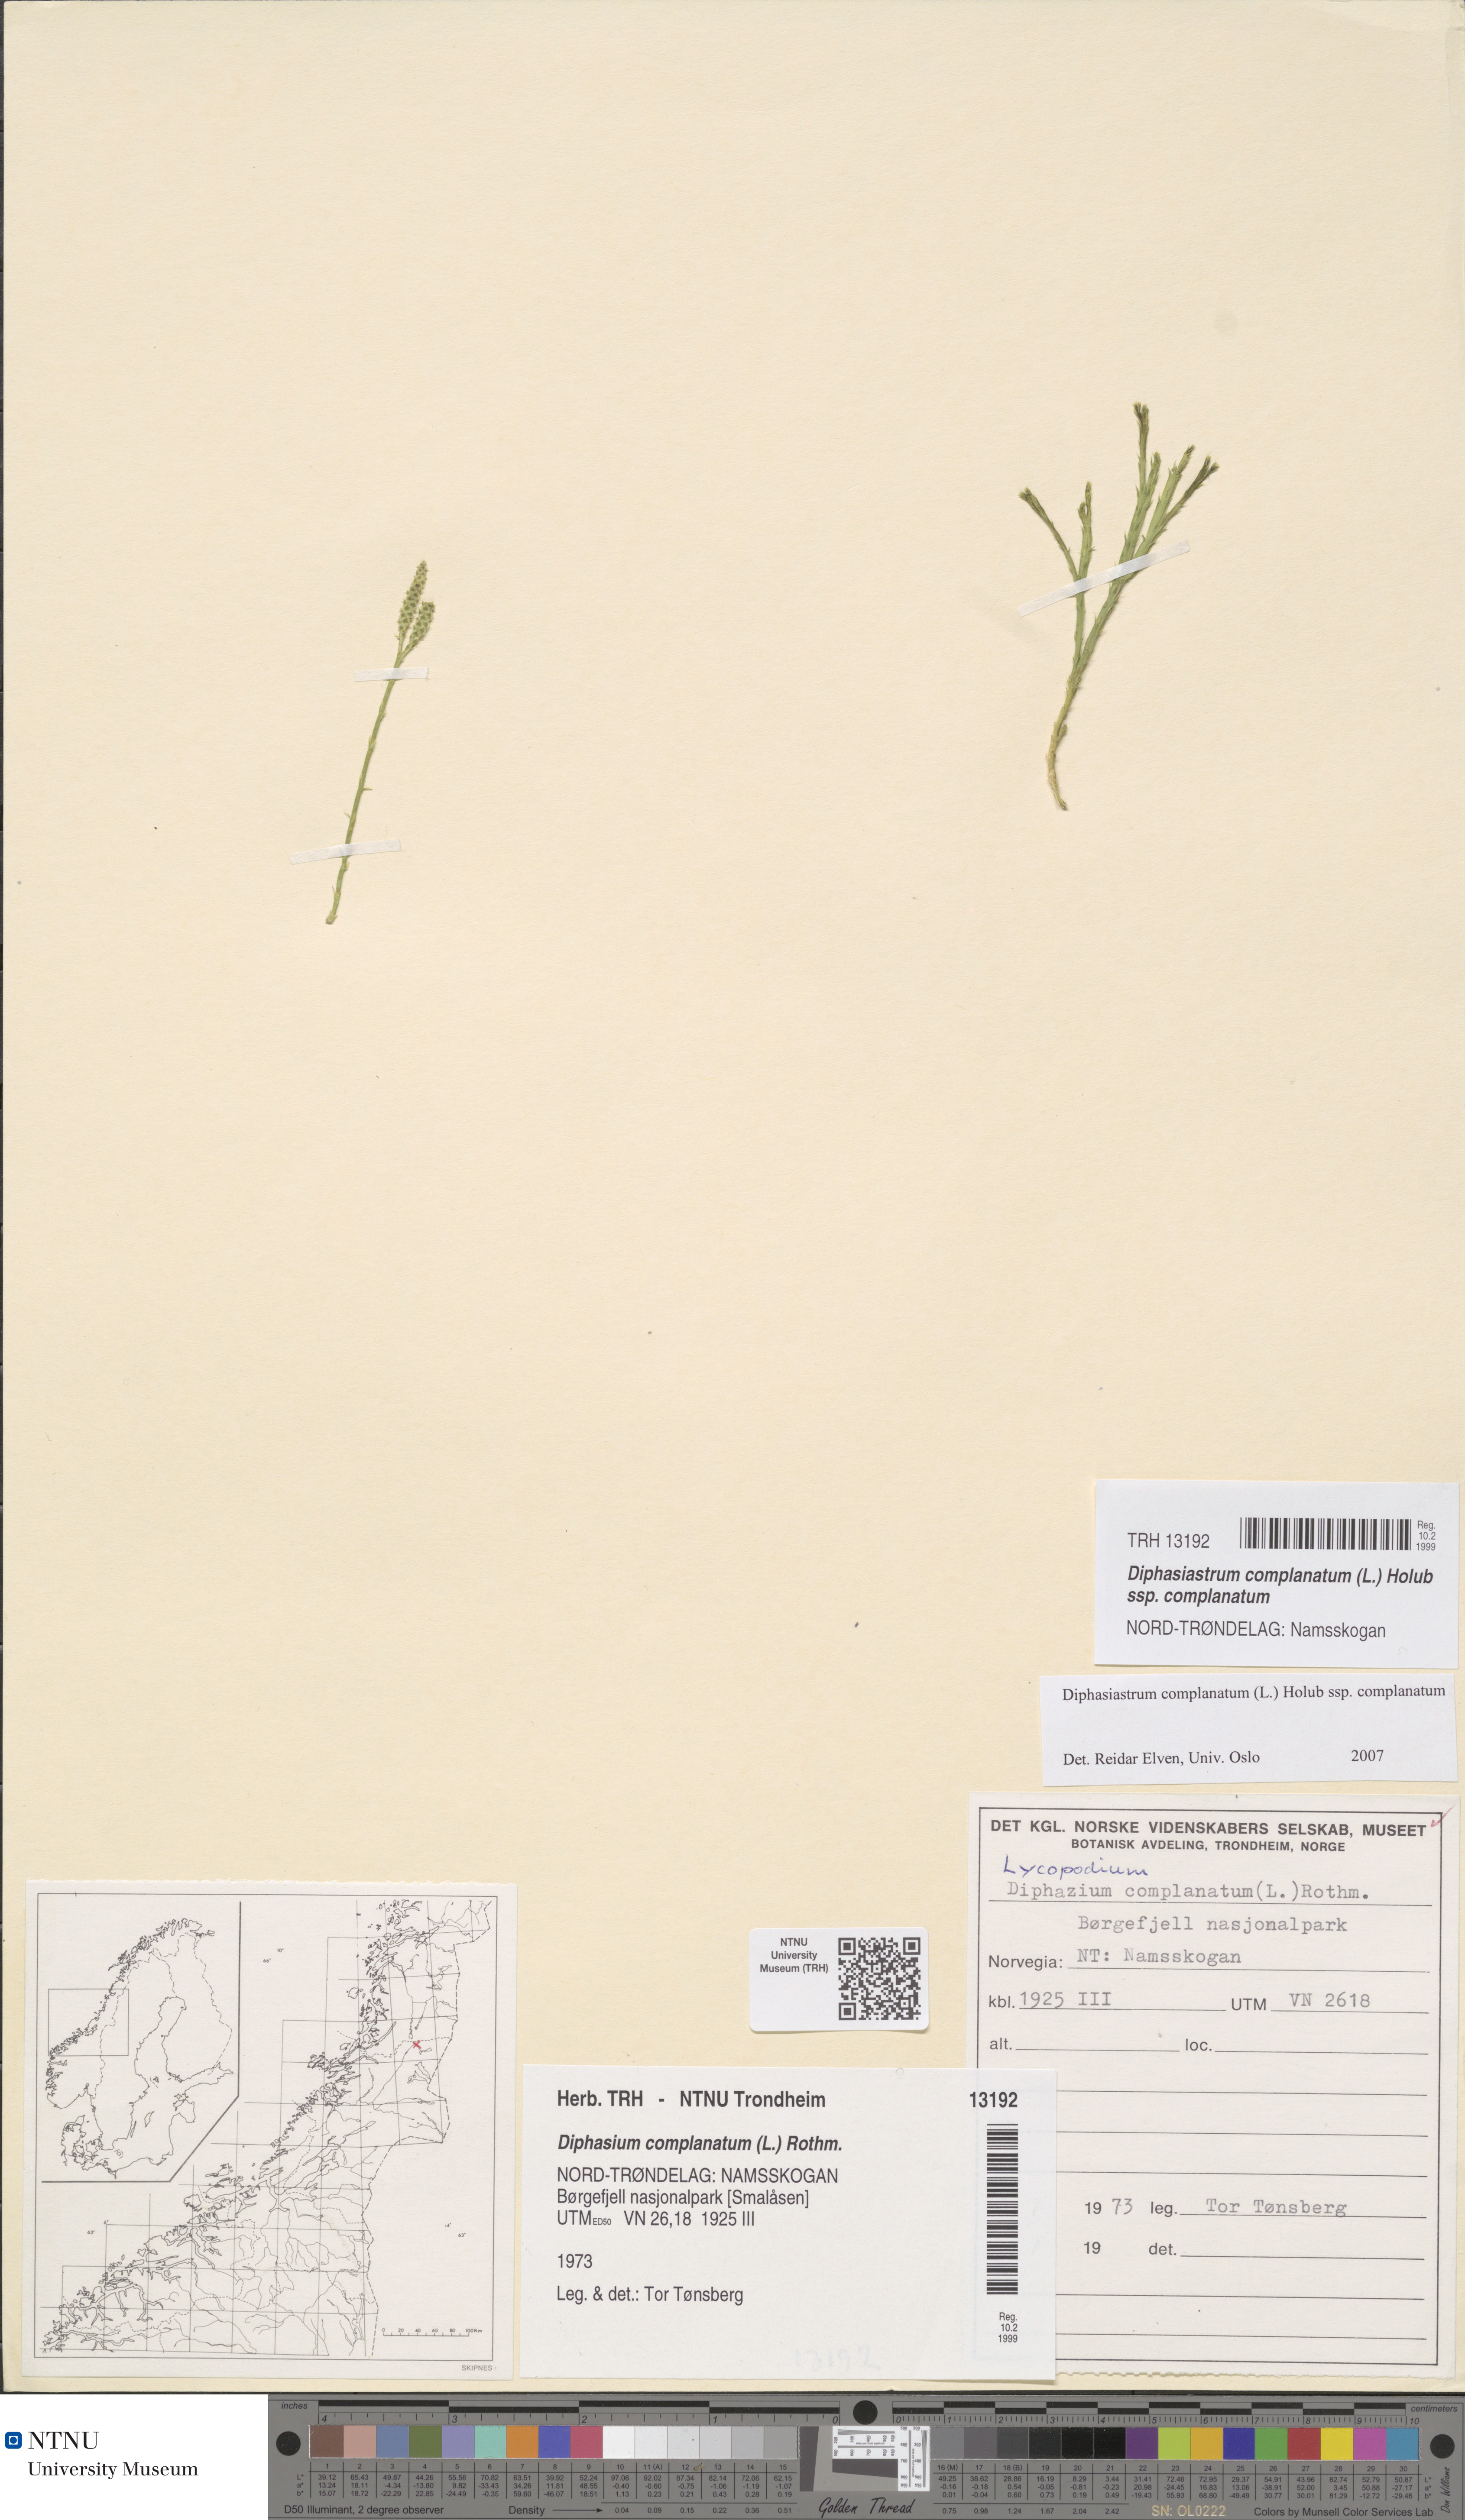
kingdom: Plantae
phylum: Tracheophyta
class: Lycopodiopsida
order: Lycopodiales
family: Lycopodiaceae
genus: Diphasiastrum
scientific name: Diphasiastrum complanatum
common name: Northern running-pine
